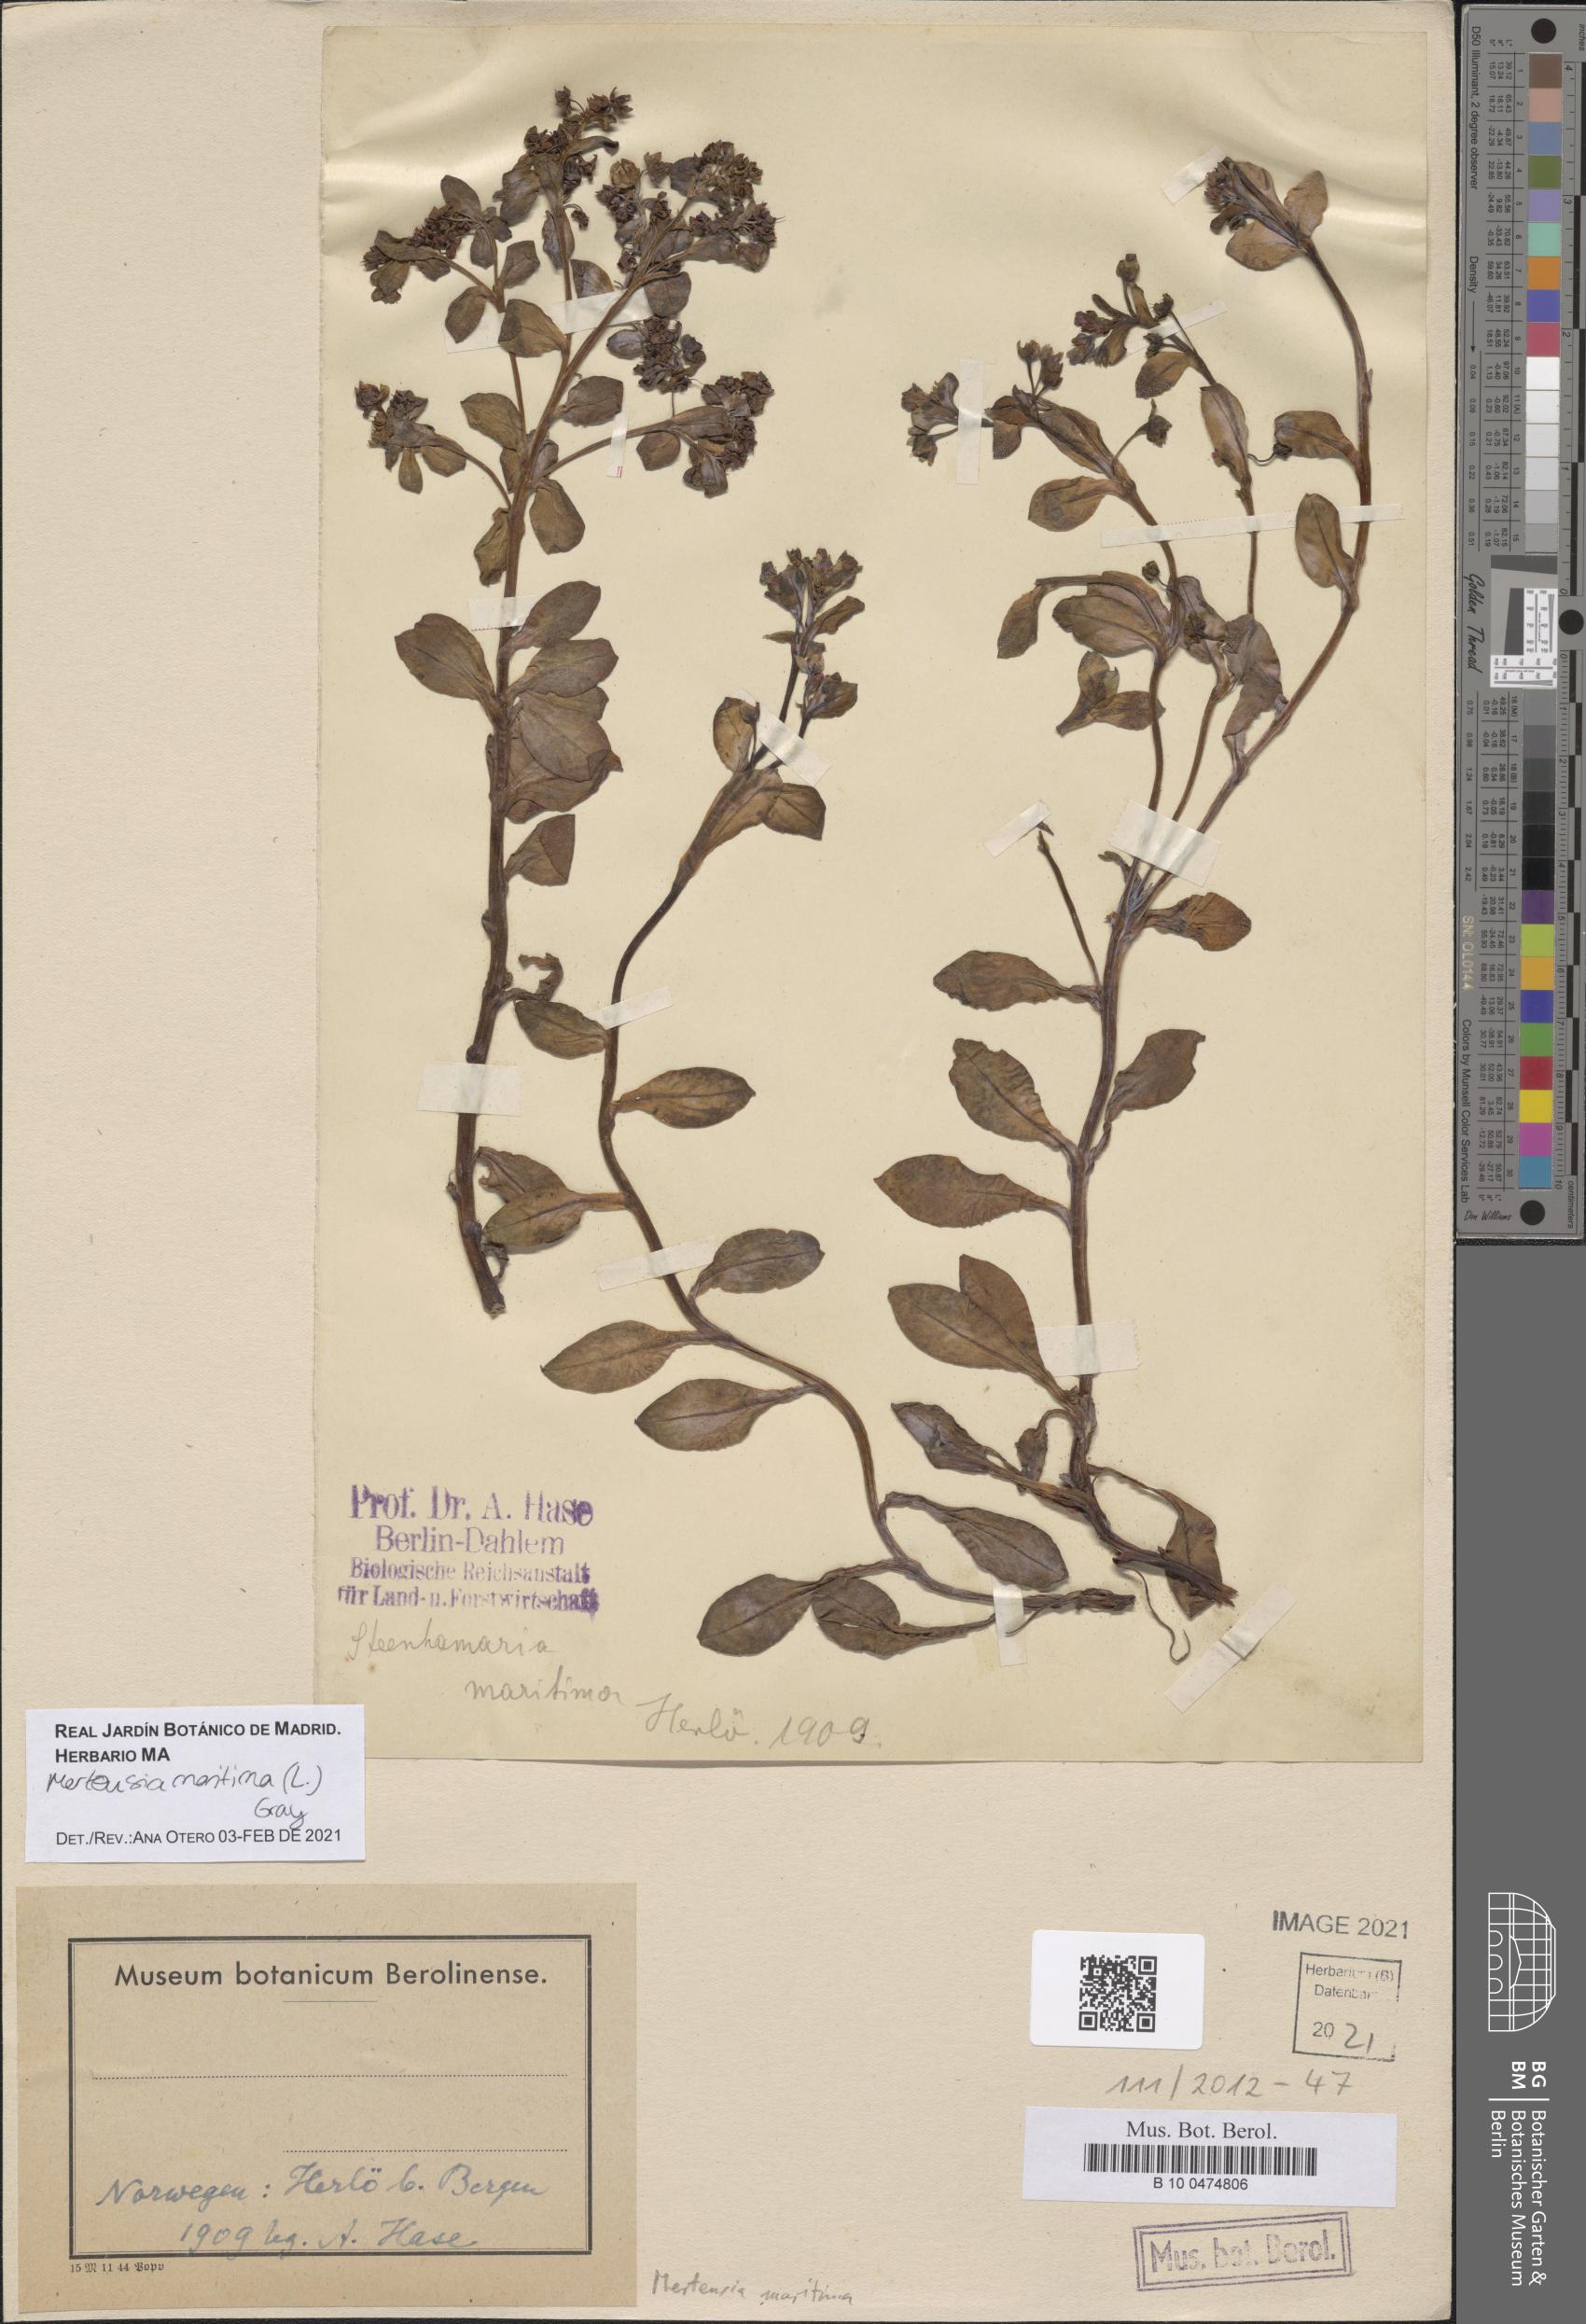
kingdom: Plantae
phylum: Tracheophyta
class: Magnoliopsida
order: Boraginales
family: Boraginaceae
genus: Mertensia
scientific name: Mertensia maritima
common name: Oysterplant
